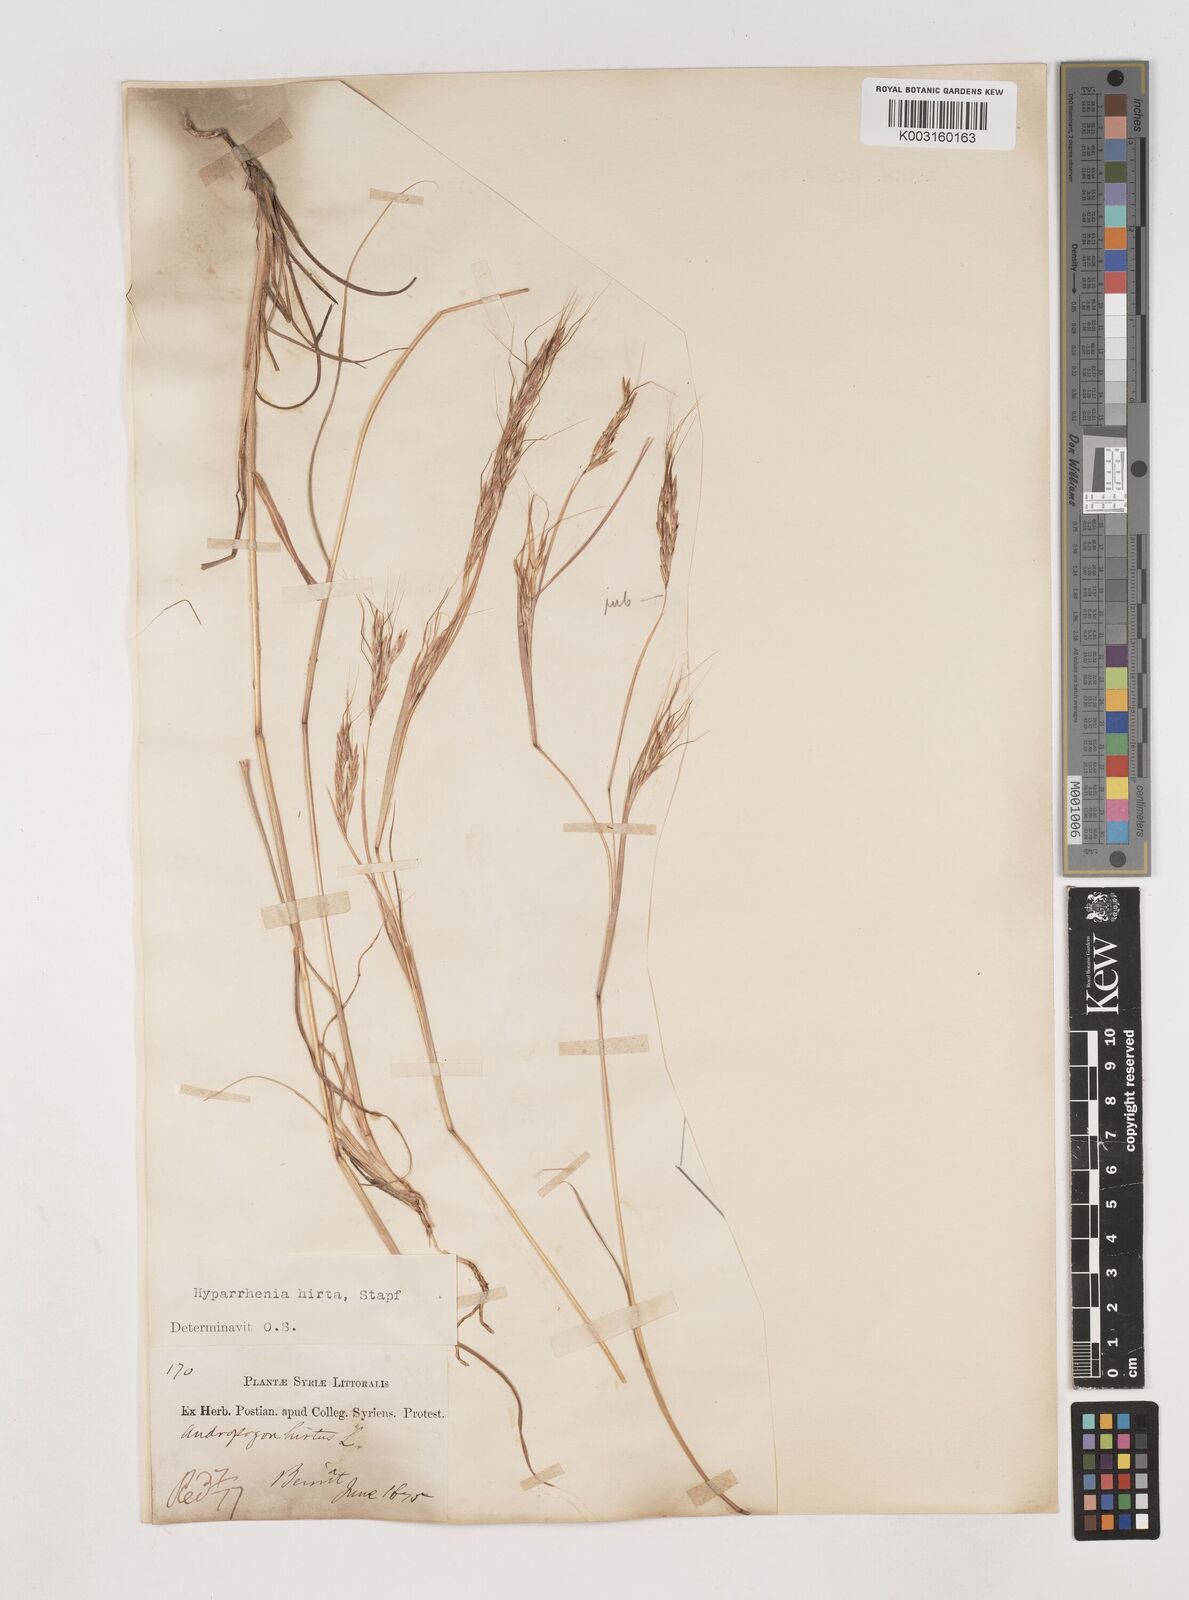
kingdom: Plantae
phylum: Tracheophyta
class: Liliopsida
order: Poales
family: Poaceae
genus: Hyparrhenia
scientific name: Hyparrhenia hirta
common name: Thatching grass
